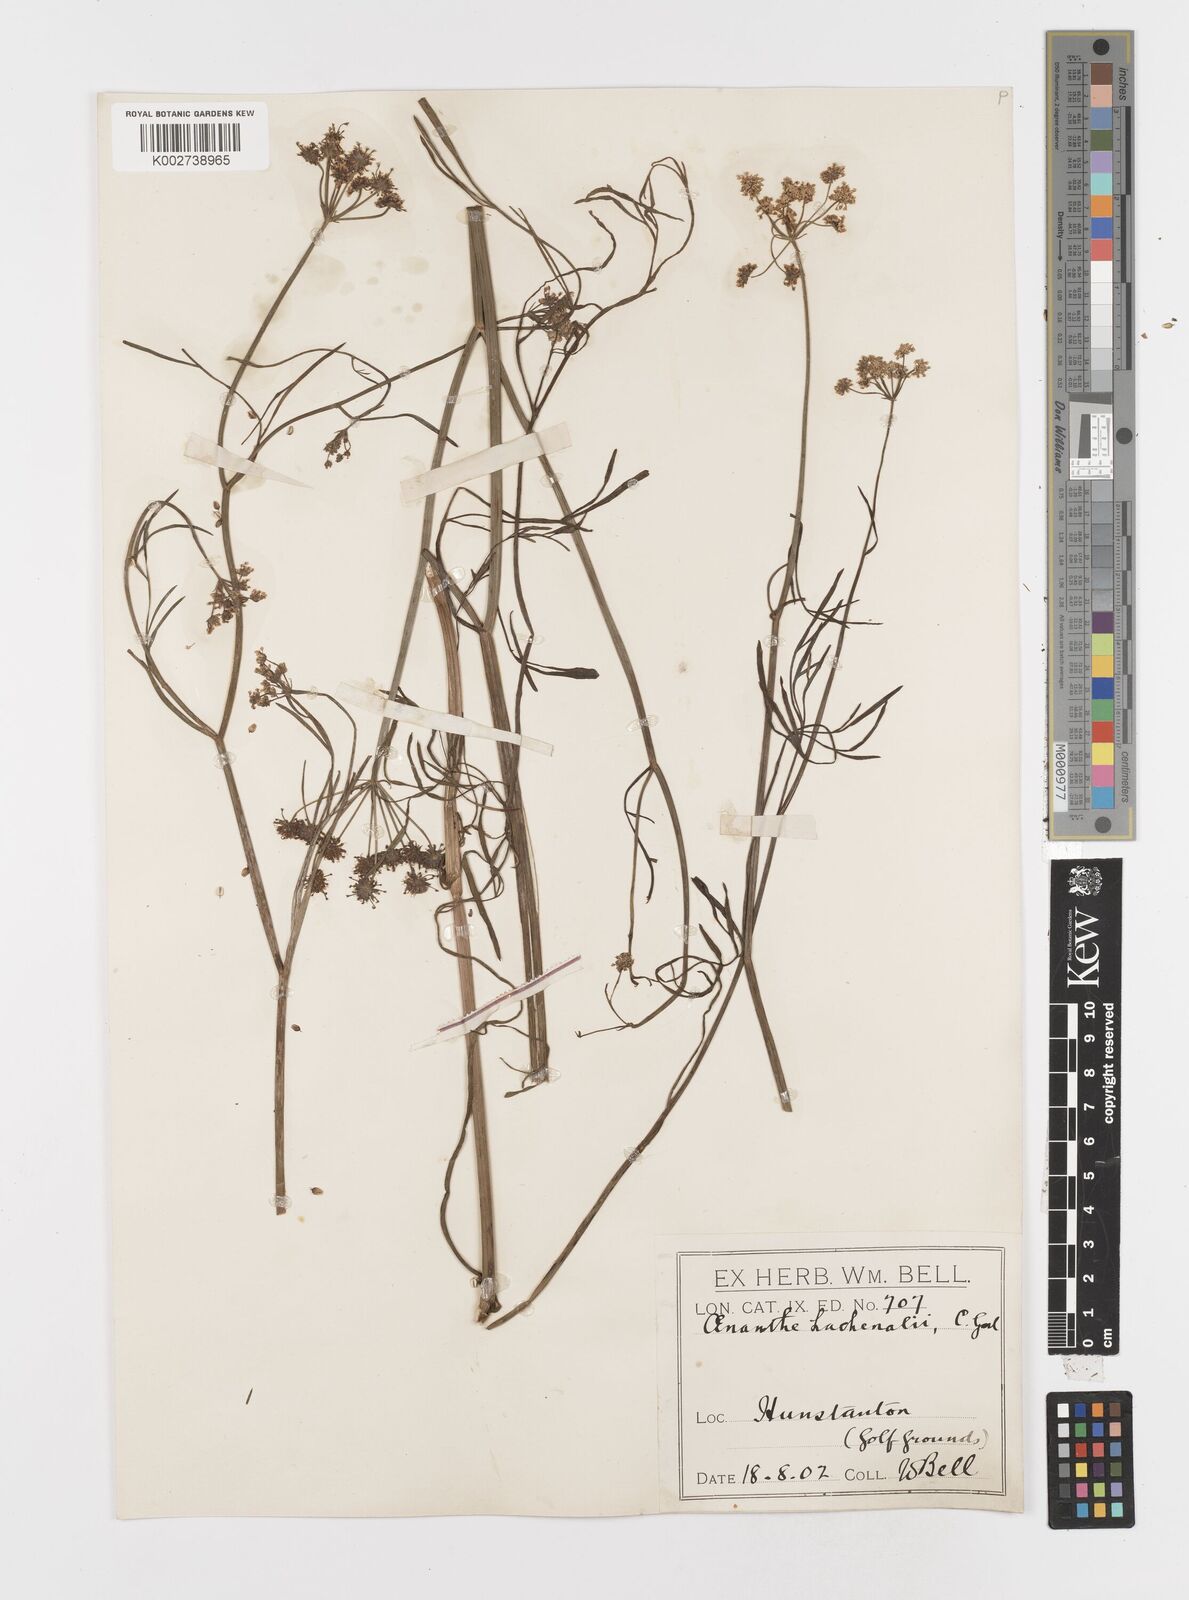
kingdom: Plantae
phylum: Tracheophyta
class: Magnoliopsida
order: Apiales
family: Apiaceae
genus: Oenanthe
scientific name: Oenanthe lachenalii
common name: Parsley water-dropwort
